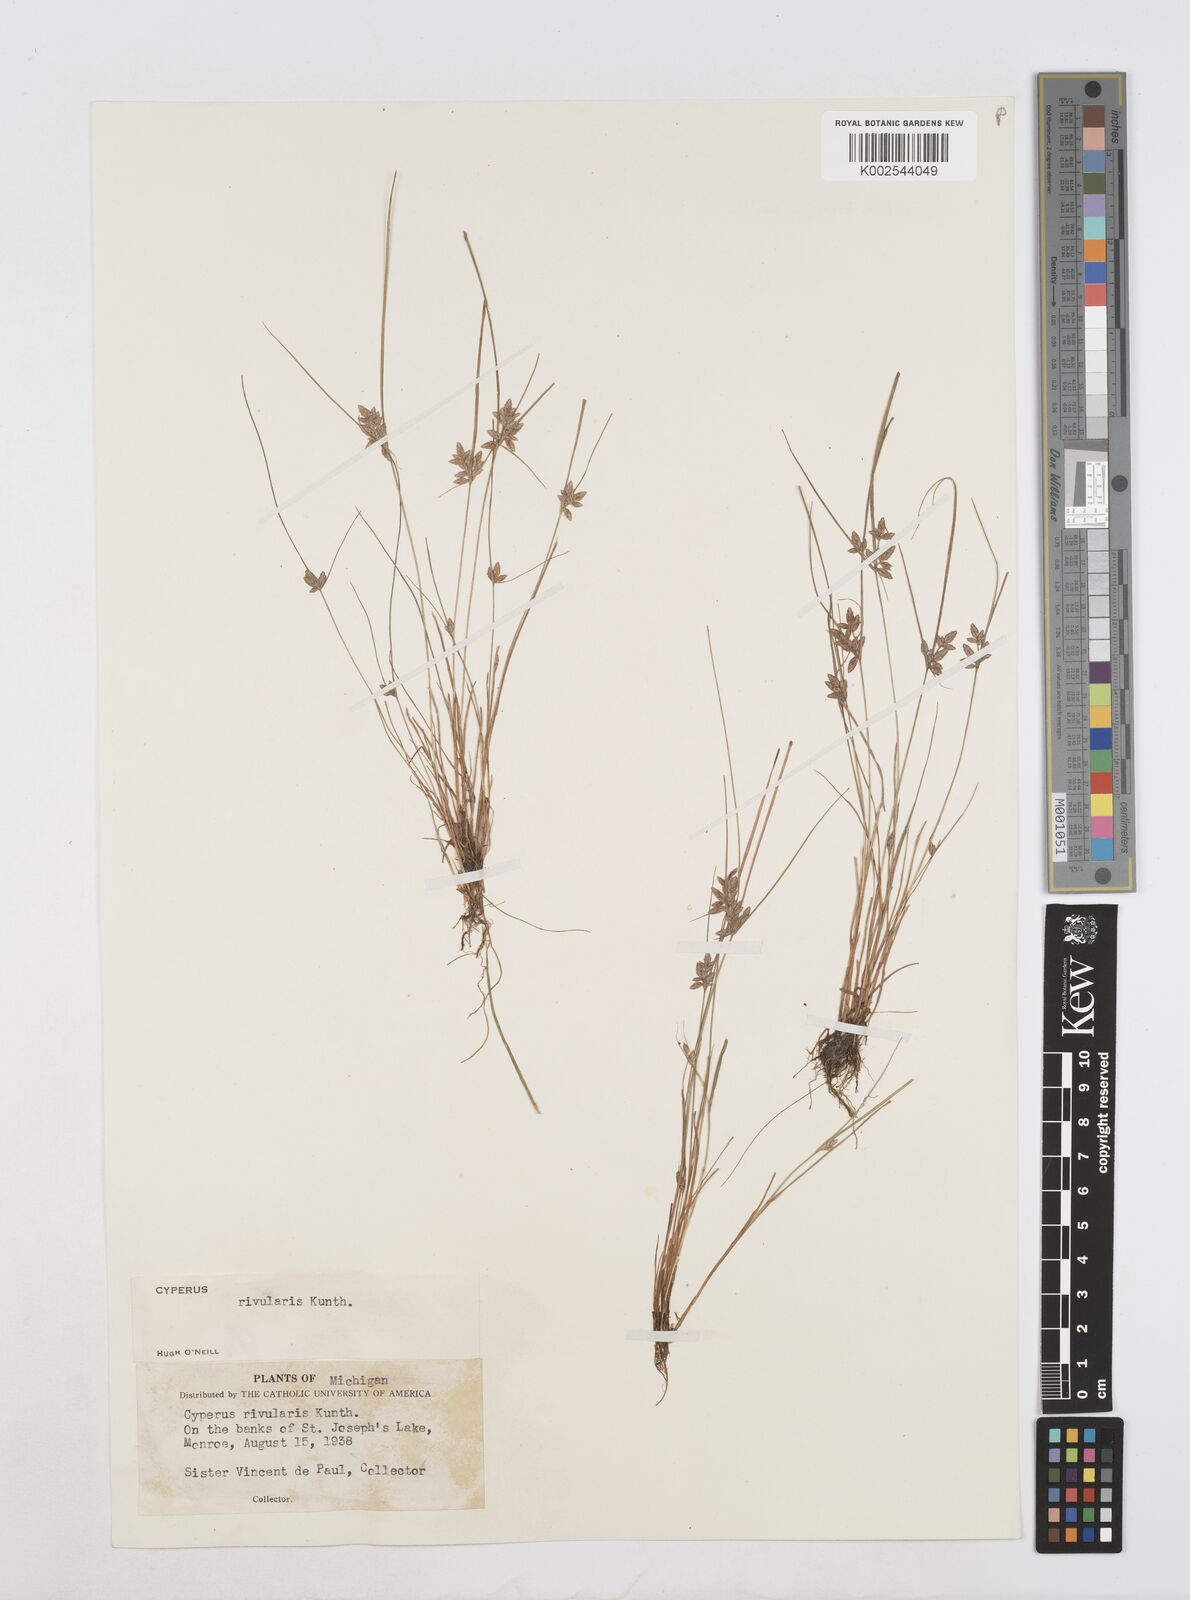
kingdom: Plantae
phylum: Tracheophyta
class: Liliopsida
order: Poales
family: Cyperaceae
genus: Cyperus
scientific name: Cyperus bipartitus
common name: Brook flatsedge
